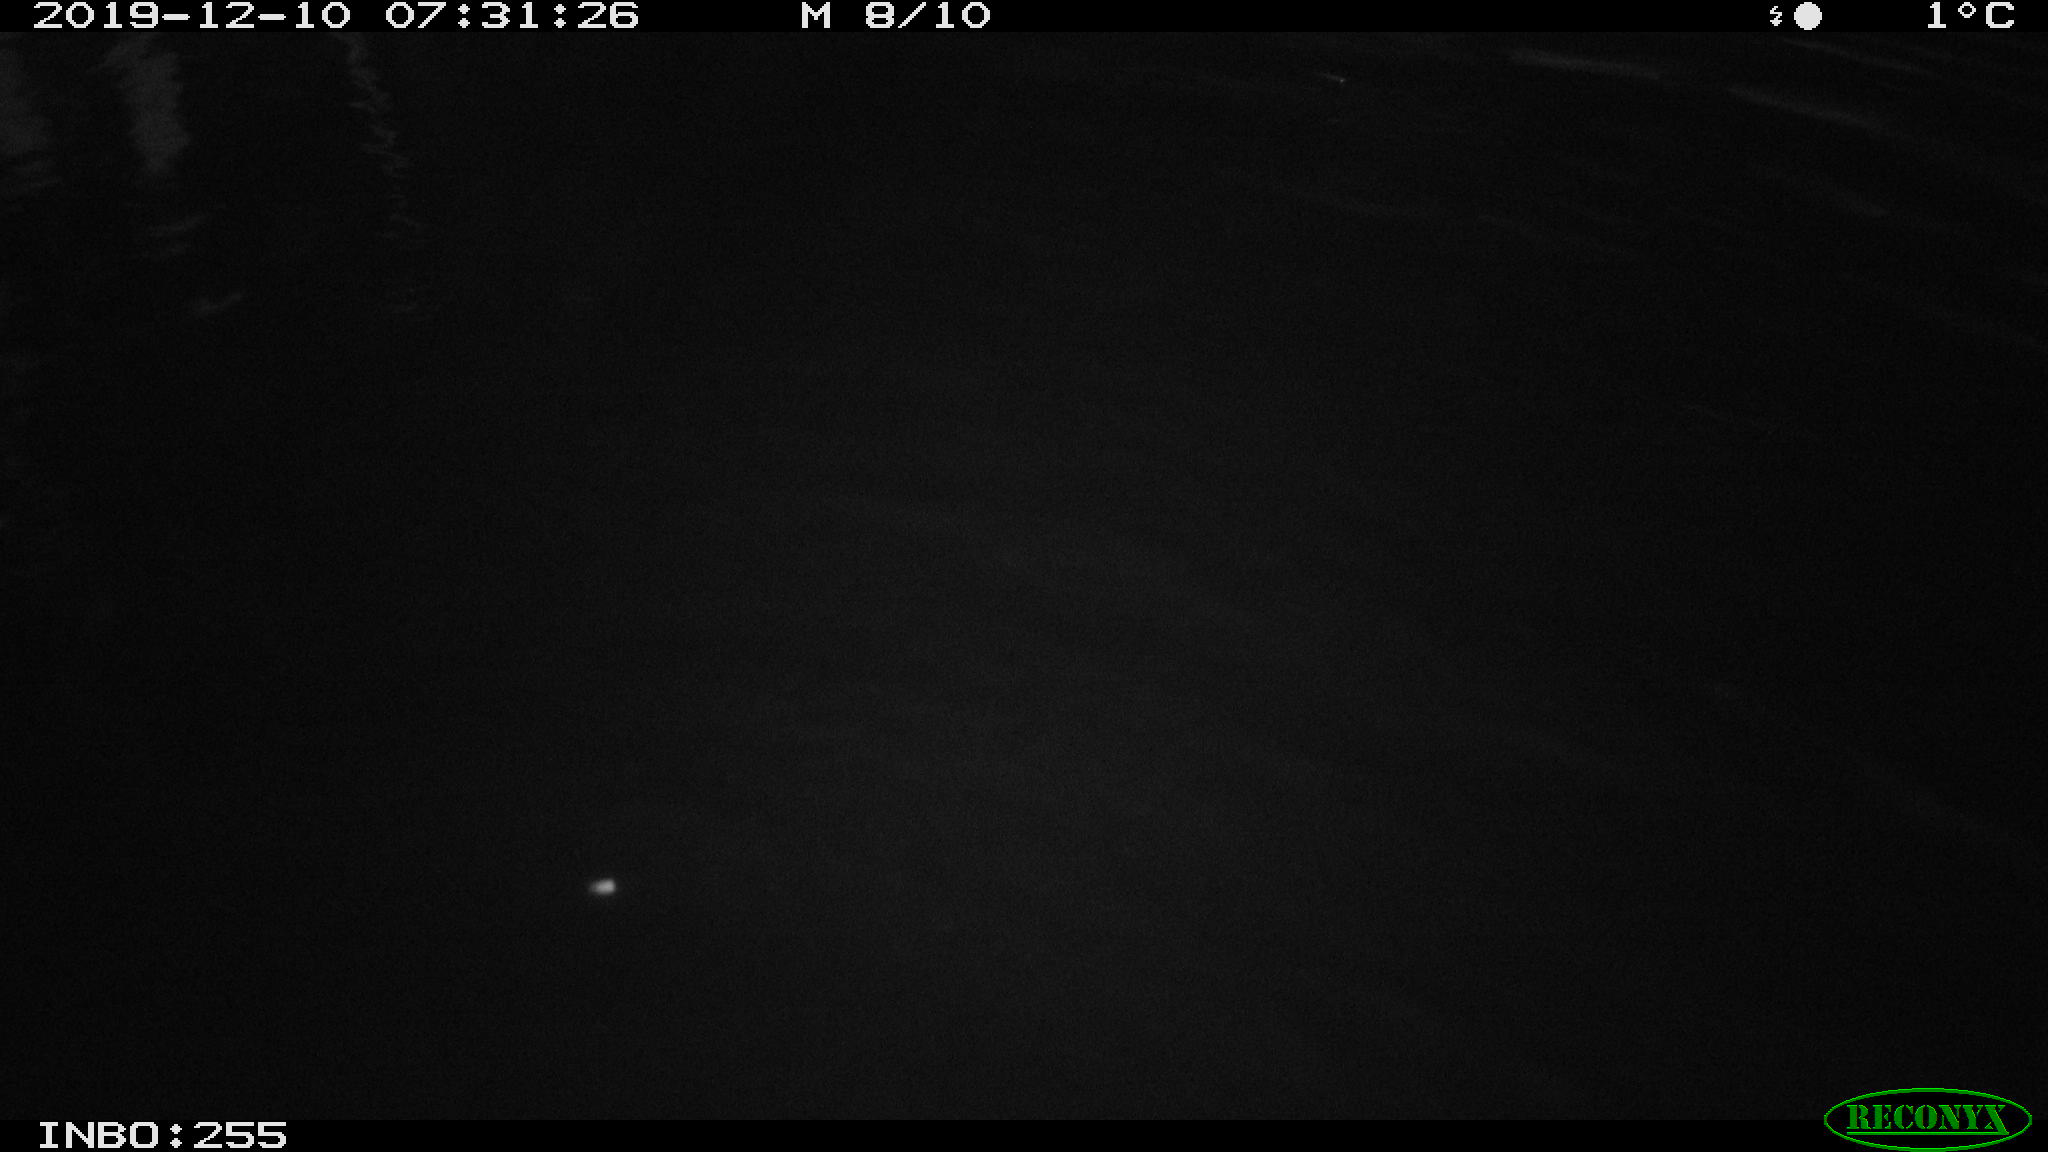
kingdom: Animalia
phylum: Chordata
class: Aves
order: Anseriformes
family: Anatidae
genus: Anas
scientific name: Anas platyrhynchos
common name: Mallard
